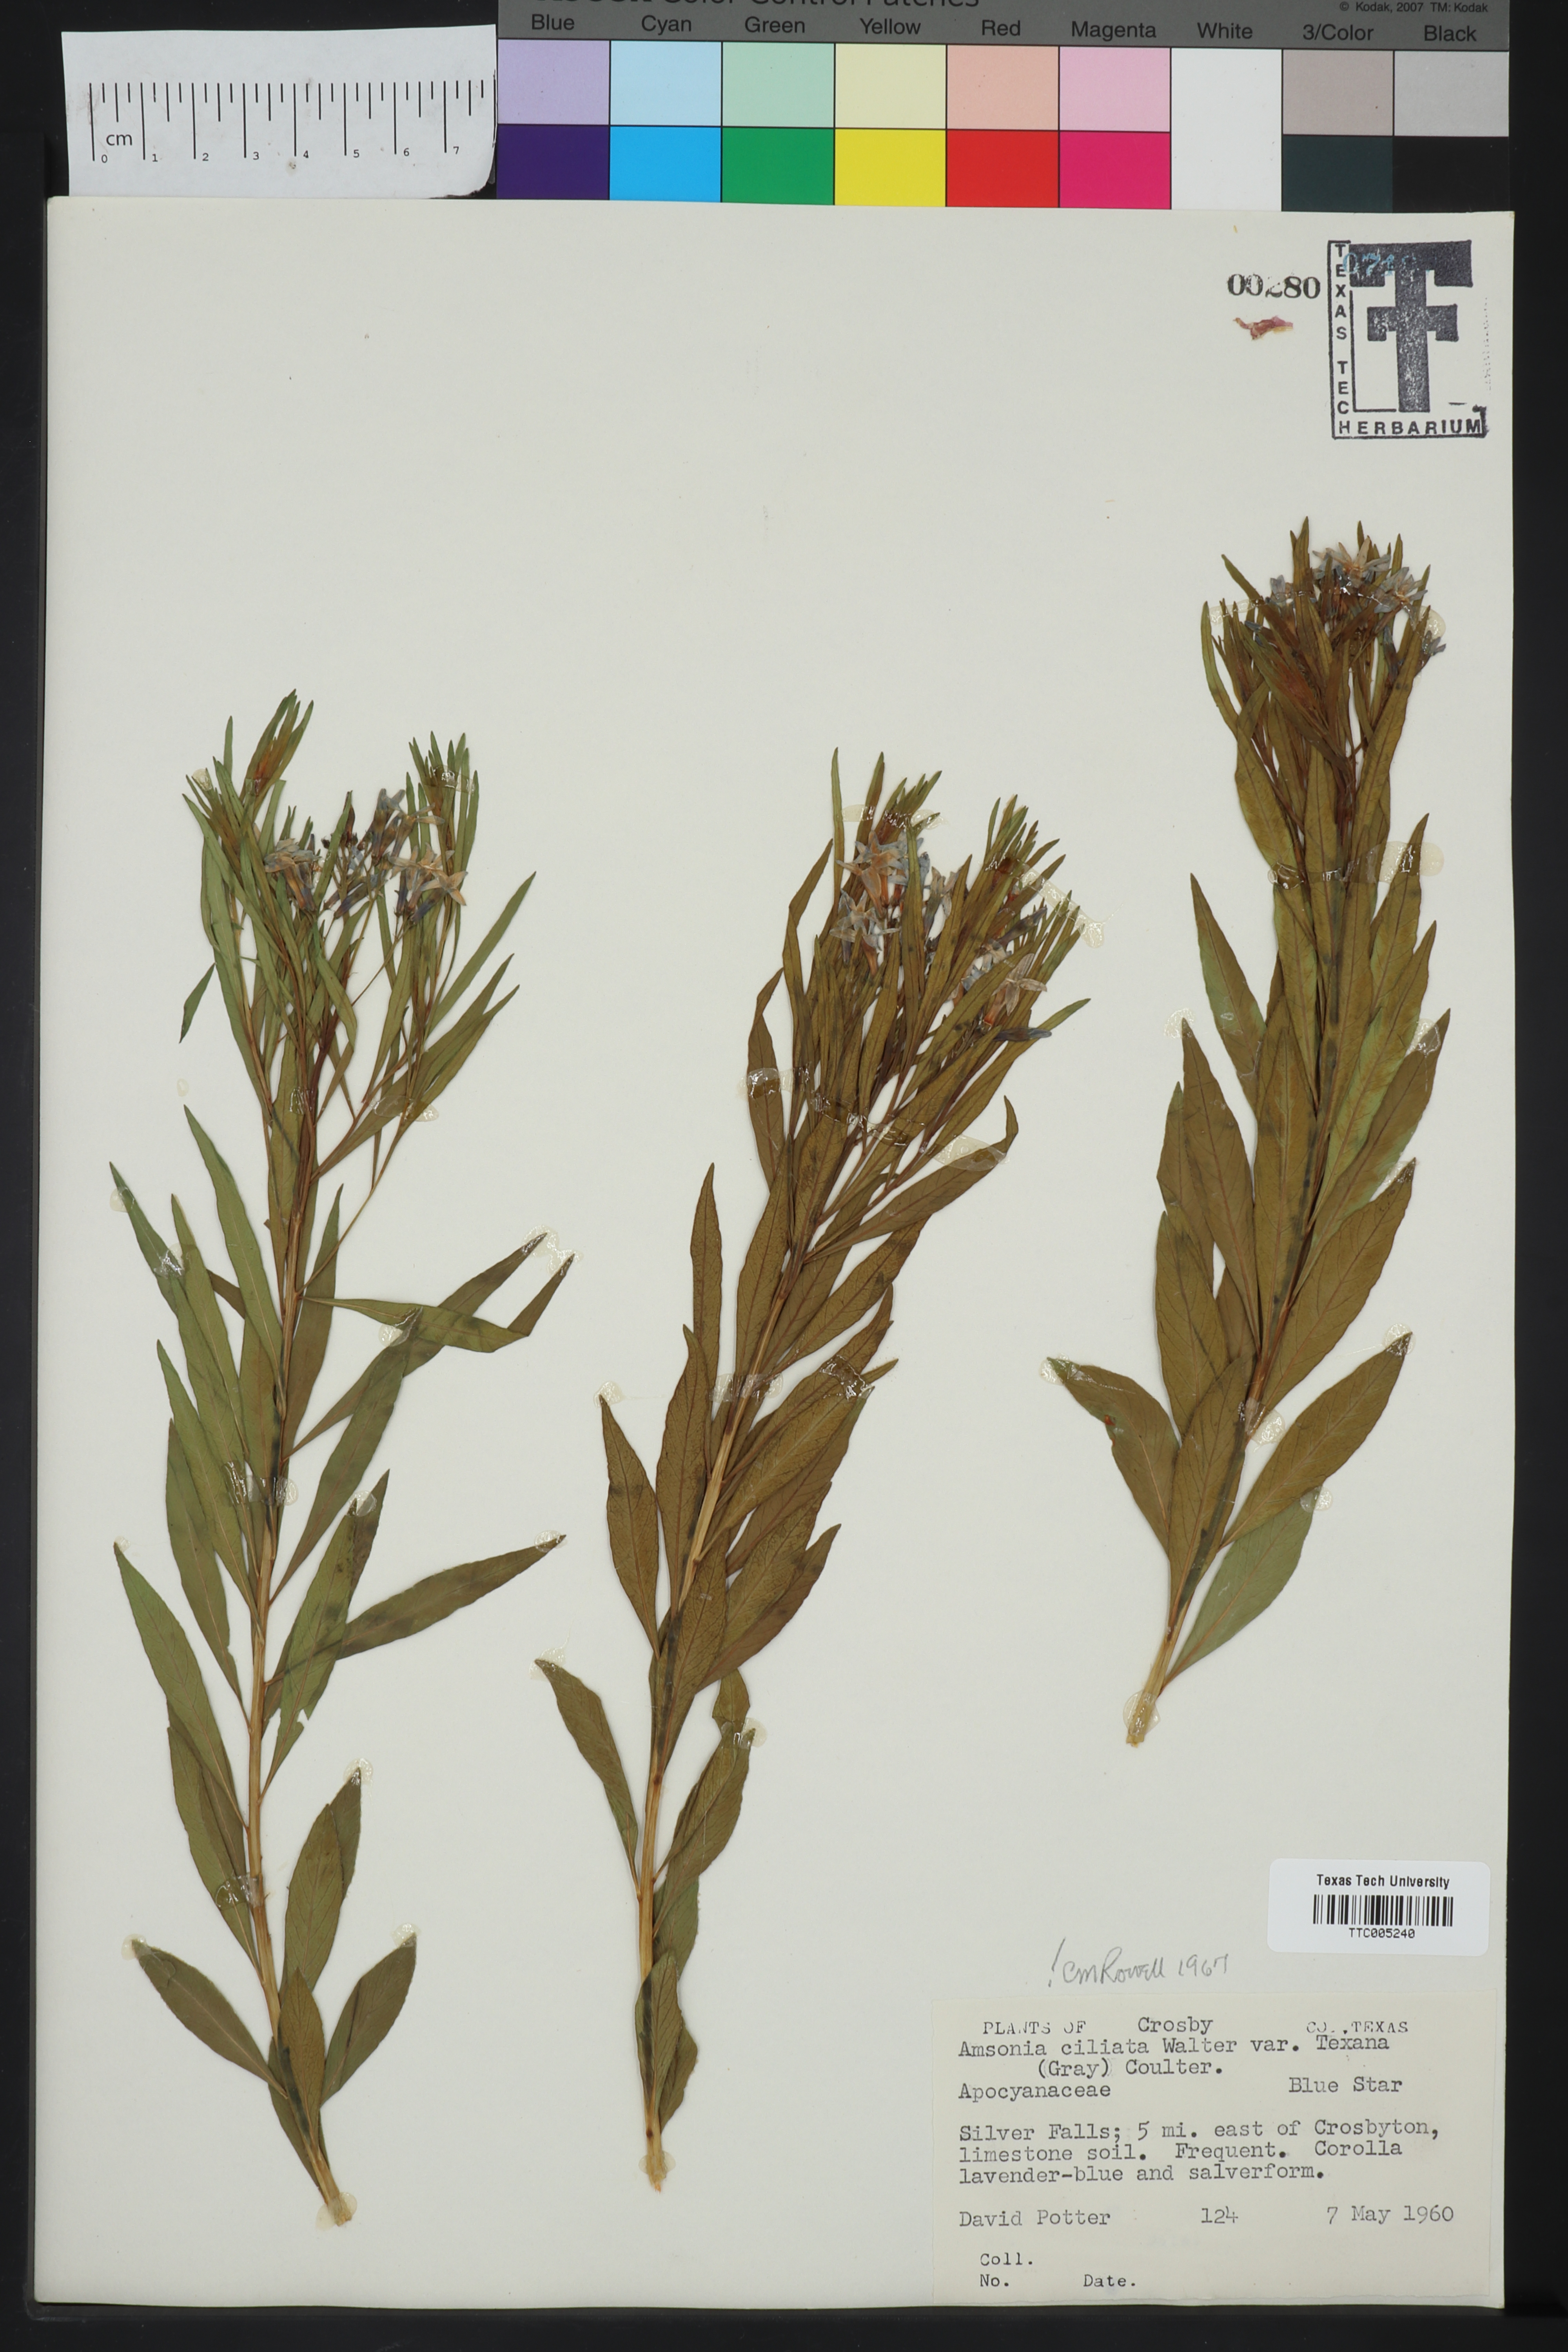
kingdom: Plantae
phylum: Tracheophyta
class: Magnoliopsida
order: Gentianales
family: Apocynaceae
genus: Amsonia
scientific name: Amsonia ciliata
